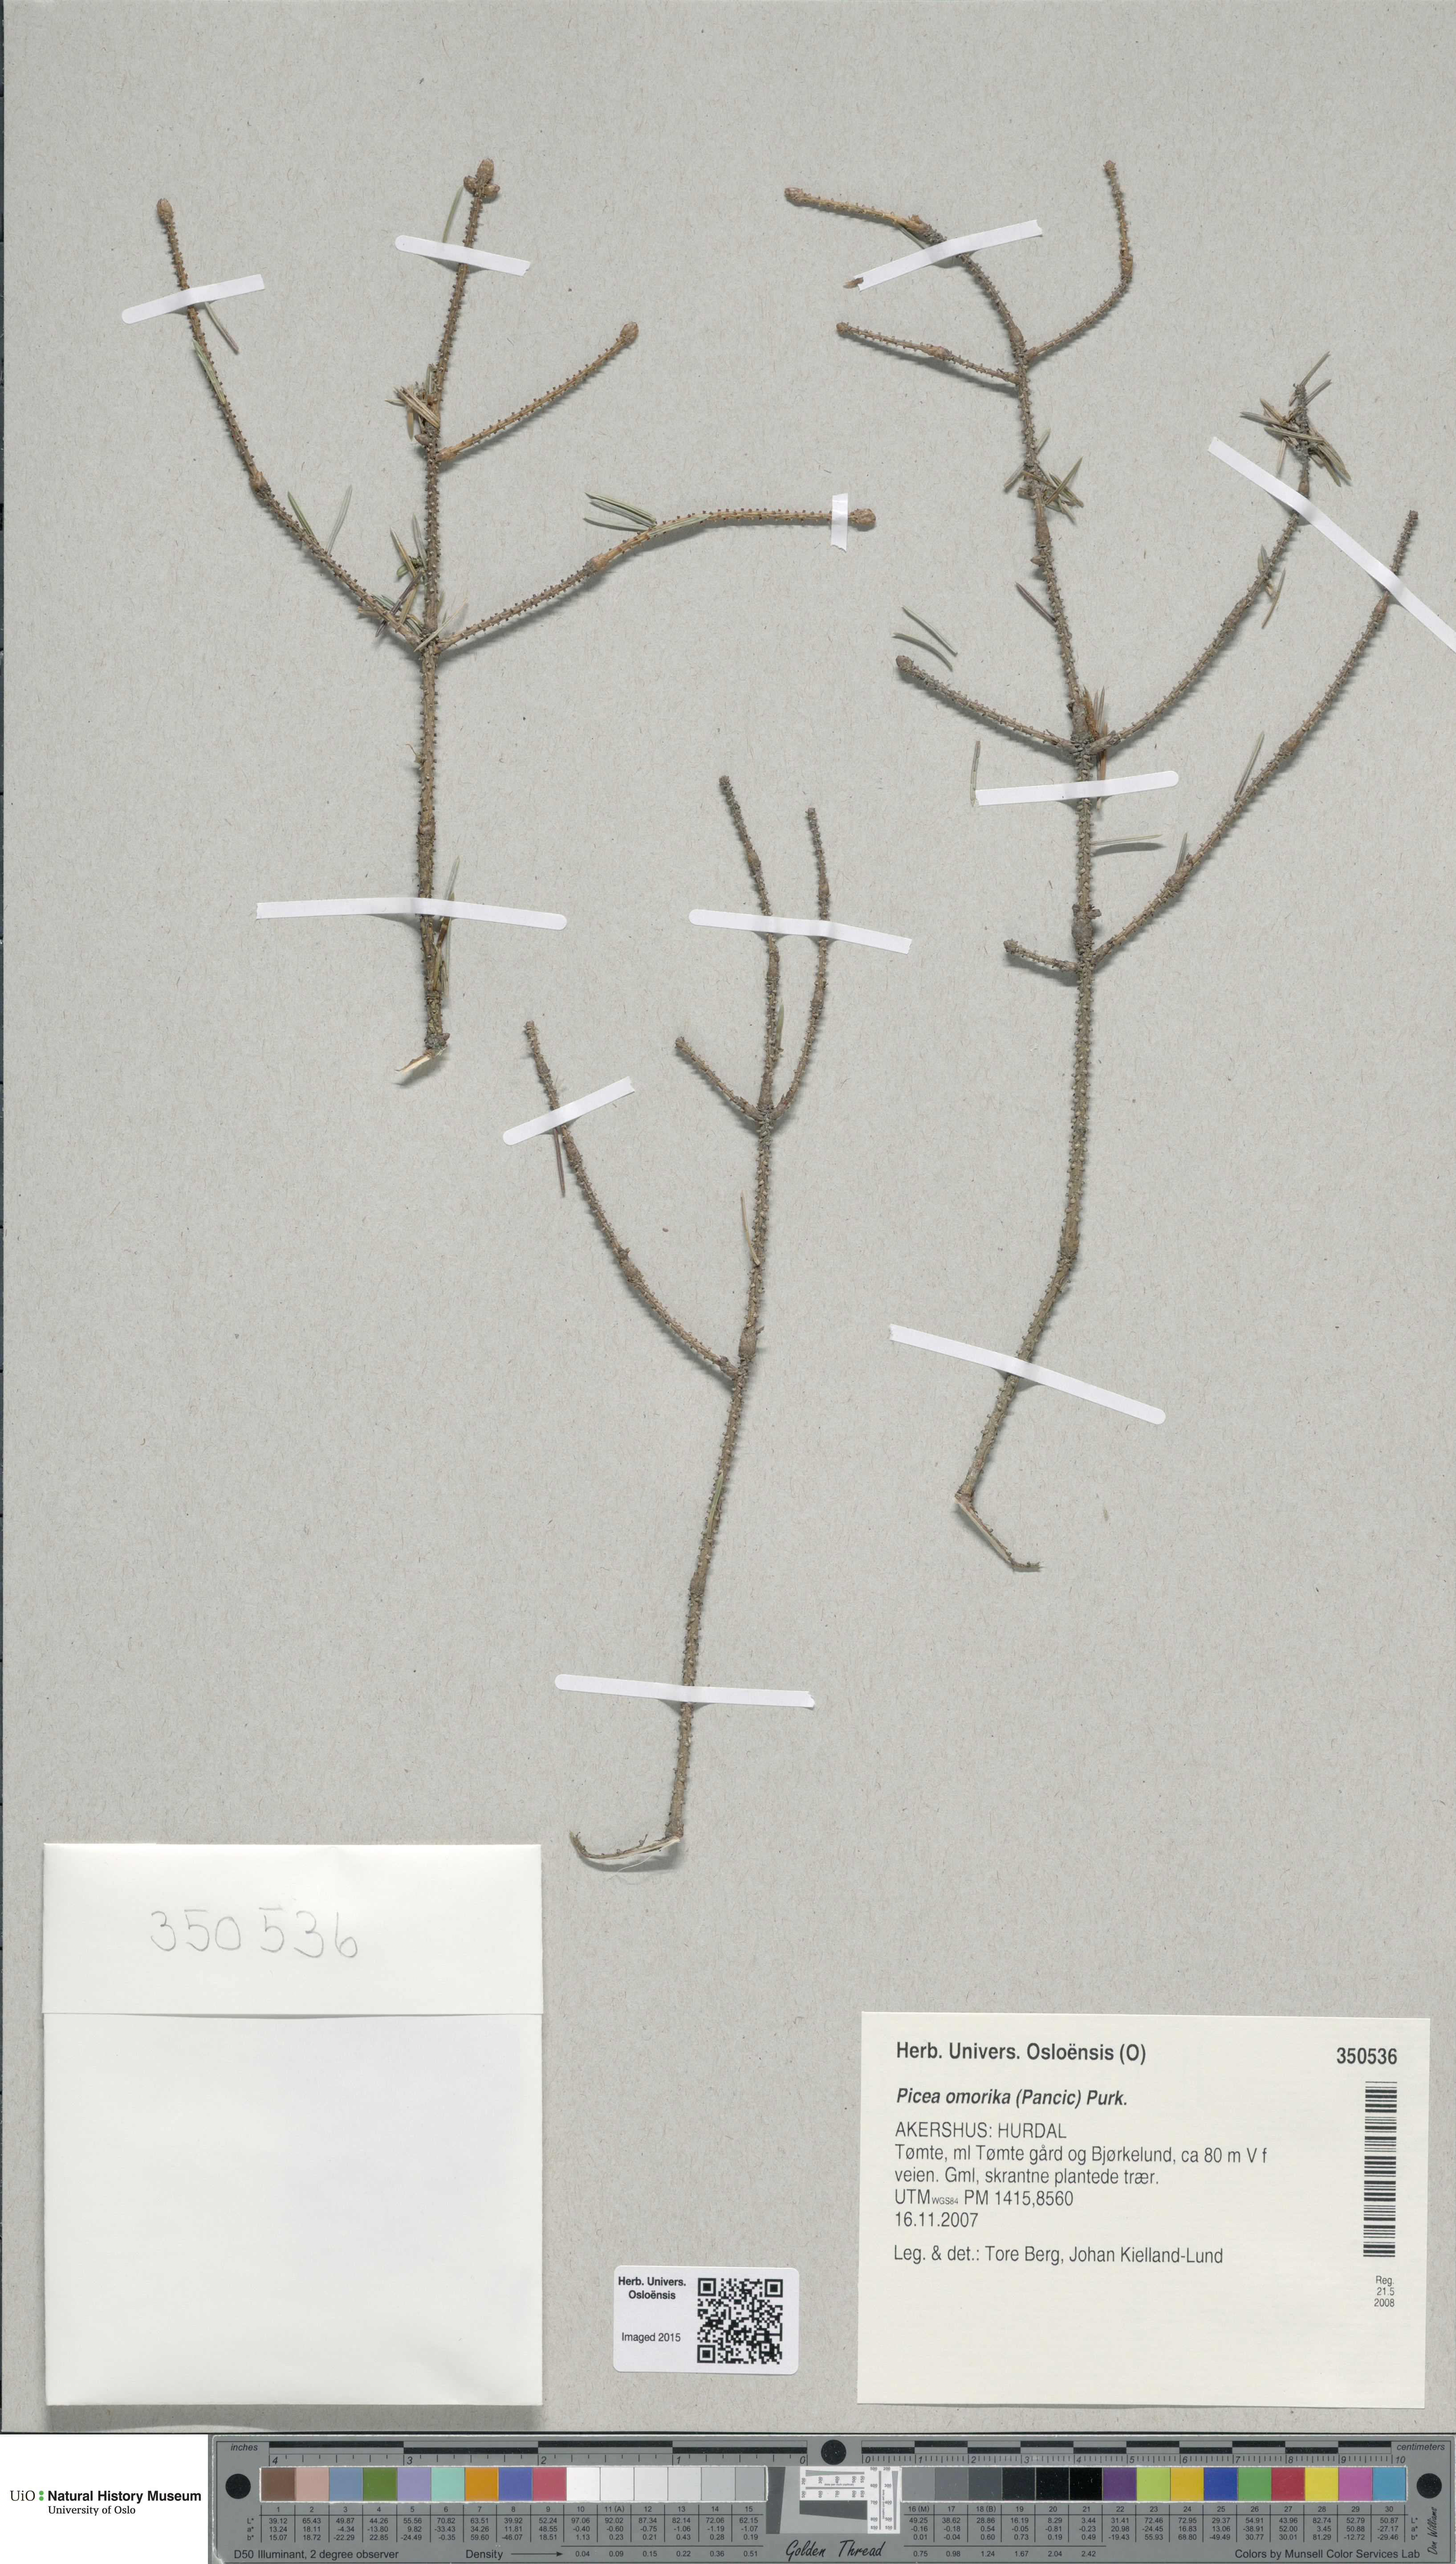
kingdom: Plantae
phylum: Tracheophyta
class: Pinopsida
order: Pinales
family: Pinaceae
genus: Picea
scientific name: Picea omorika
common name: Serbian spruce
